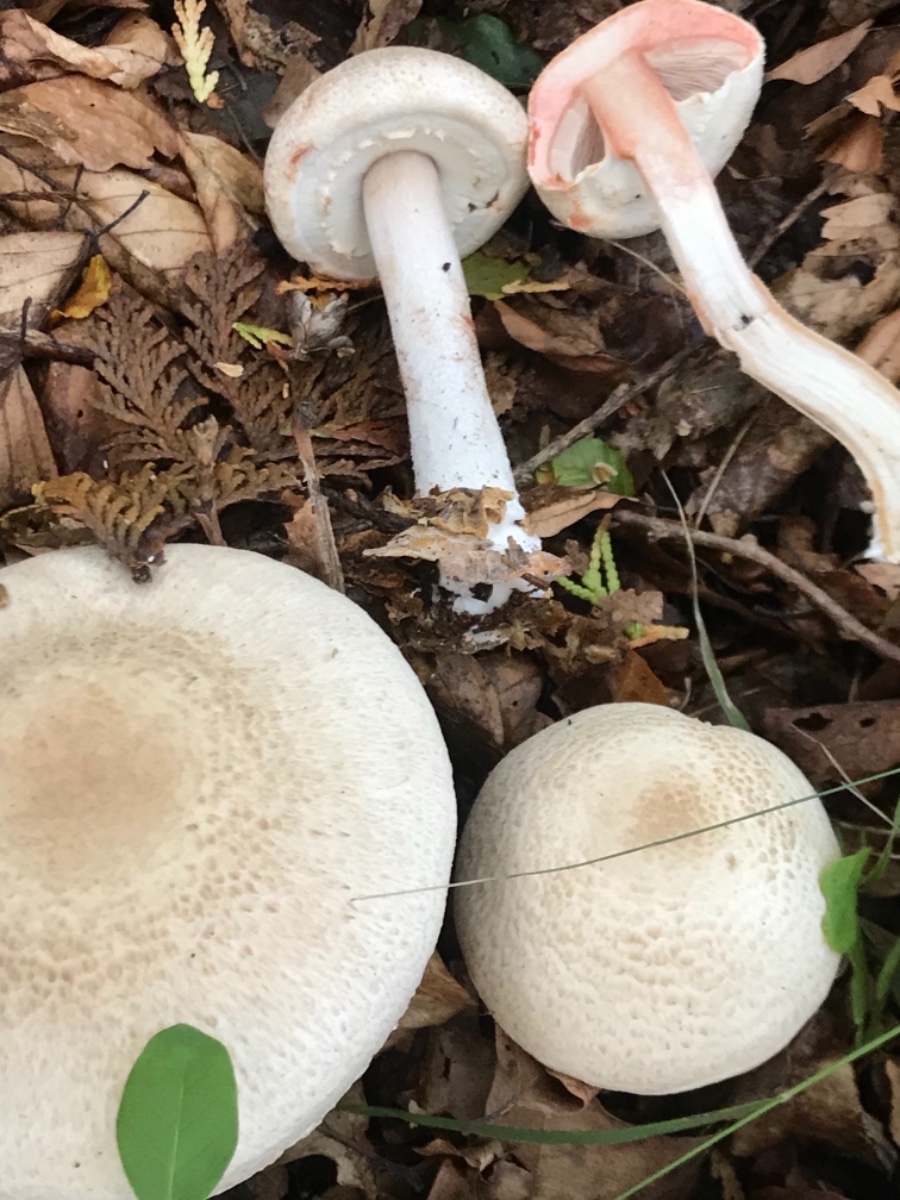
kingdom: Fungi
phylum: Basidiomycota
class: Agaricomycetes
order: Agaricales
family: Agaricaceae
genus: Agaricus
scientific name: Agaricus sylvaticus
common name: lille blod-champignon
